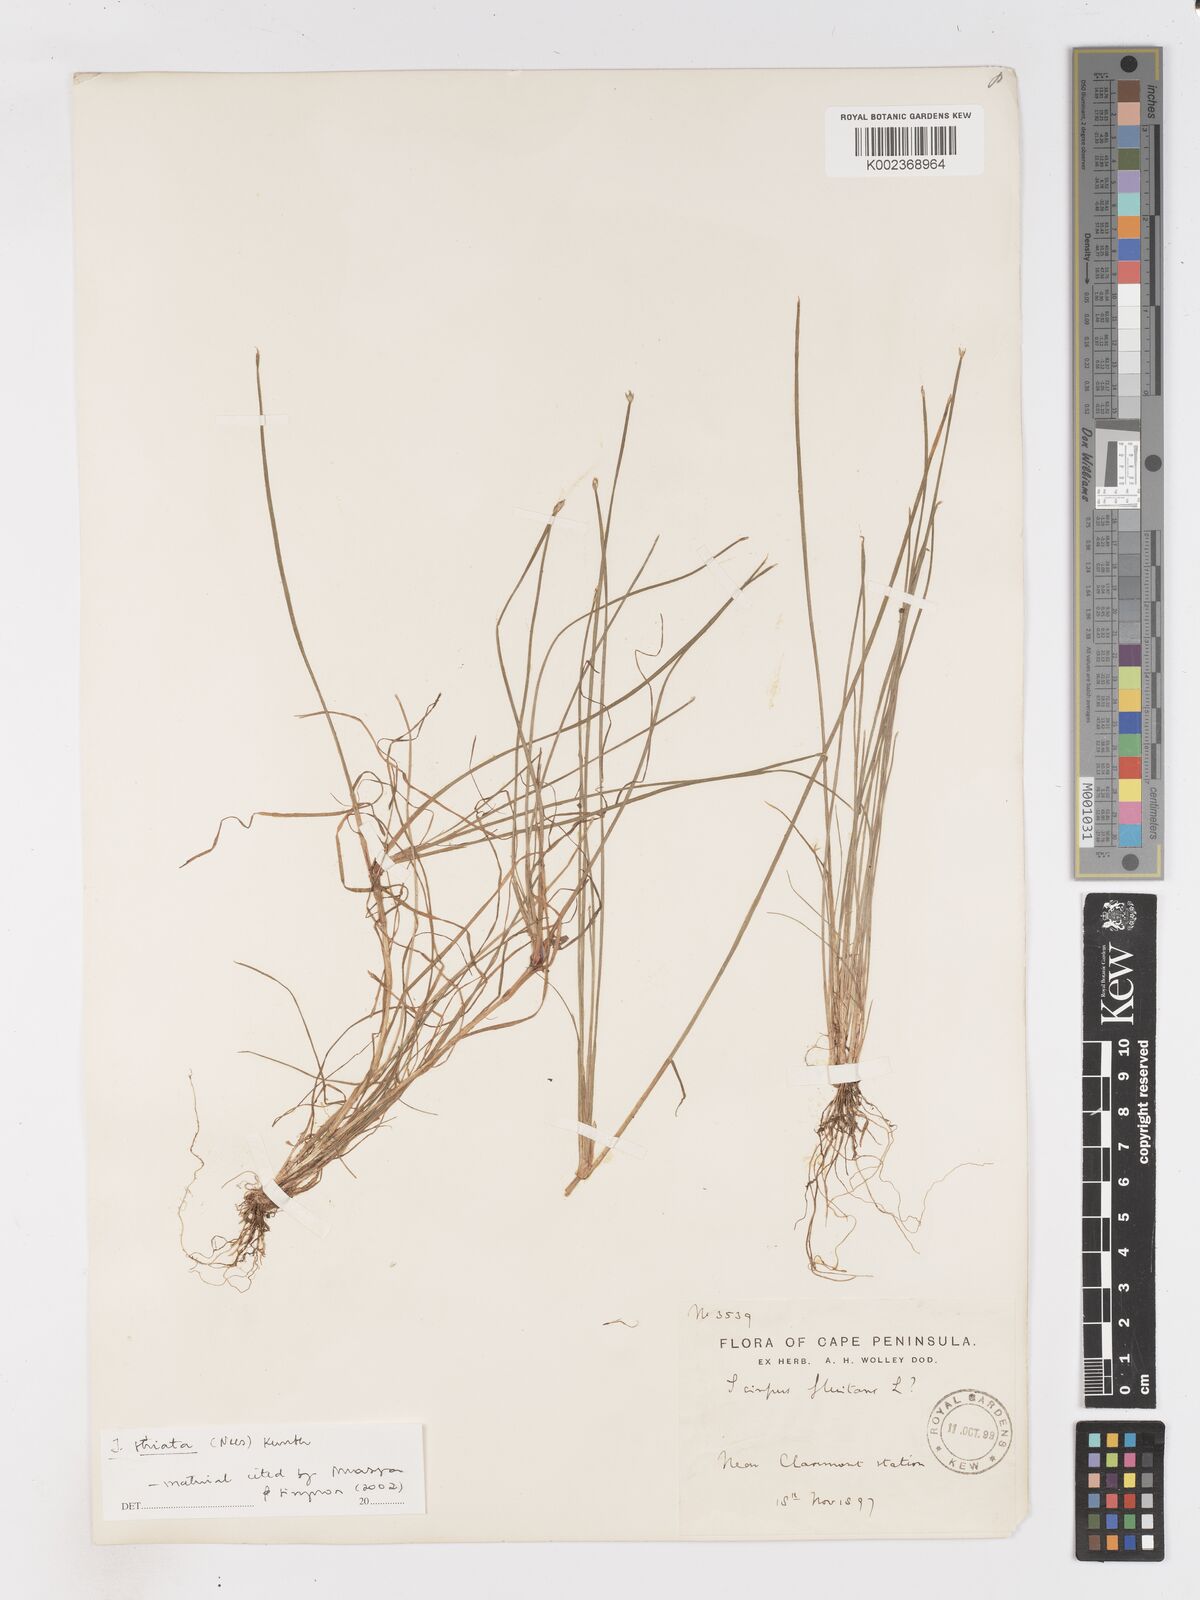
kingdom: Plantae
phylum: Tracheophyta
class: Liliopsida
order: Poales
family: Cyperaceae
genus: Isolepis
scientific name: Isolepis striata
